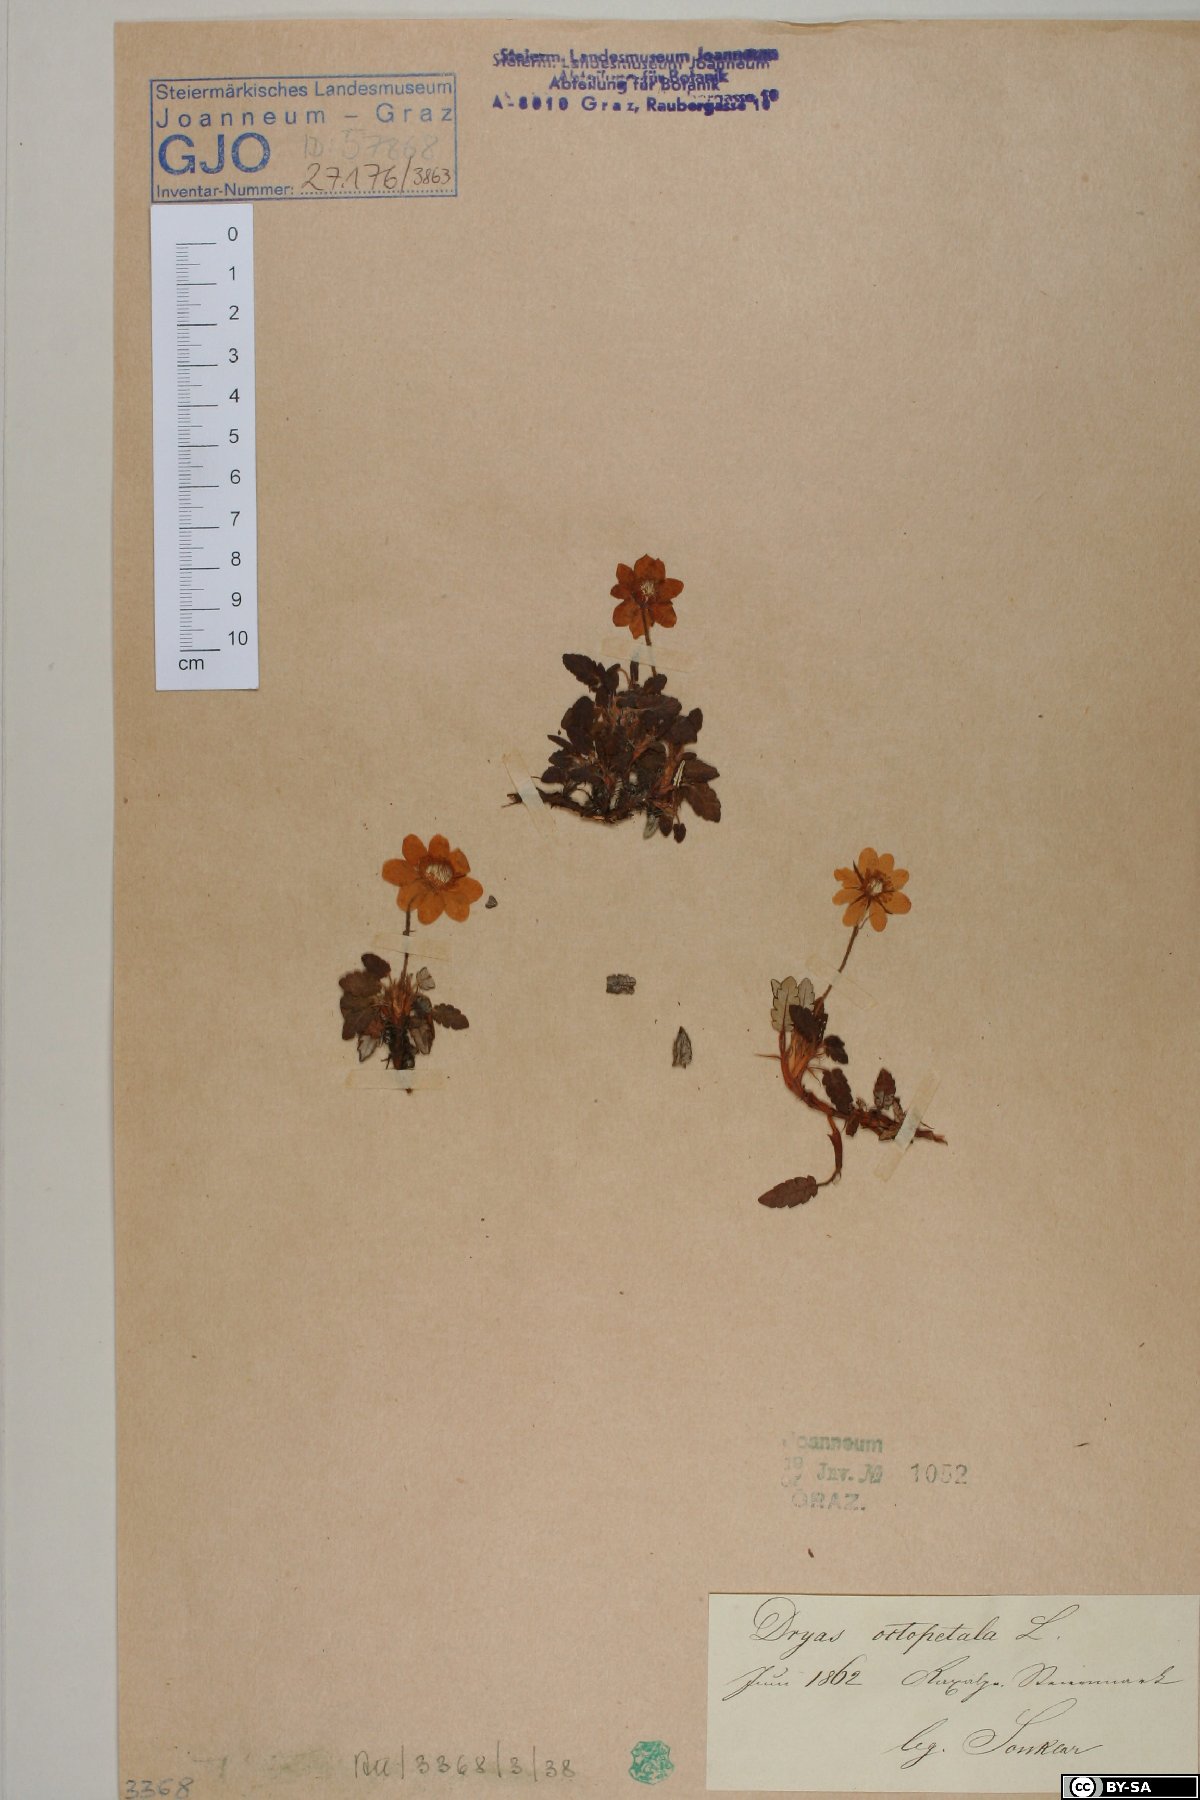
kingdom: Plantae
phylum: Tracheophyta
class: Magnoliopsida
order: Rosales
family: Rosaceae
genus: Dryas
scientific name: Dryas octopetala
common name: Eight-petal mountain-avens
